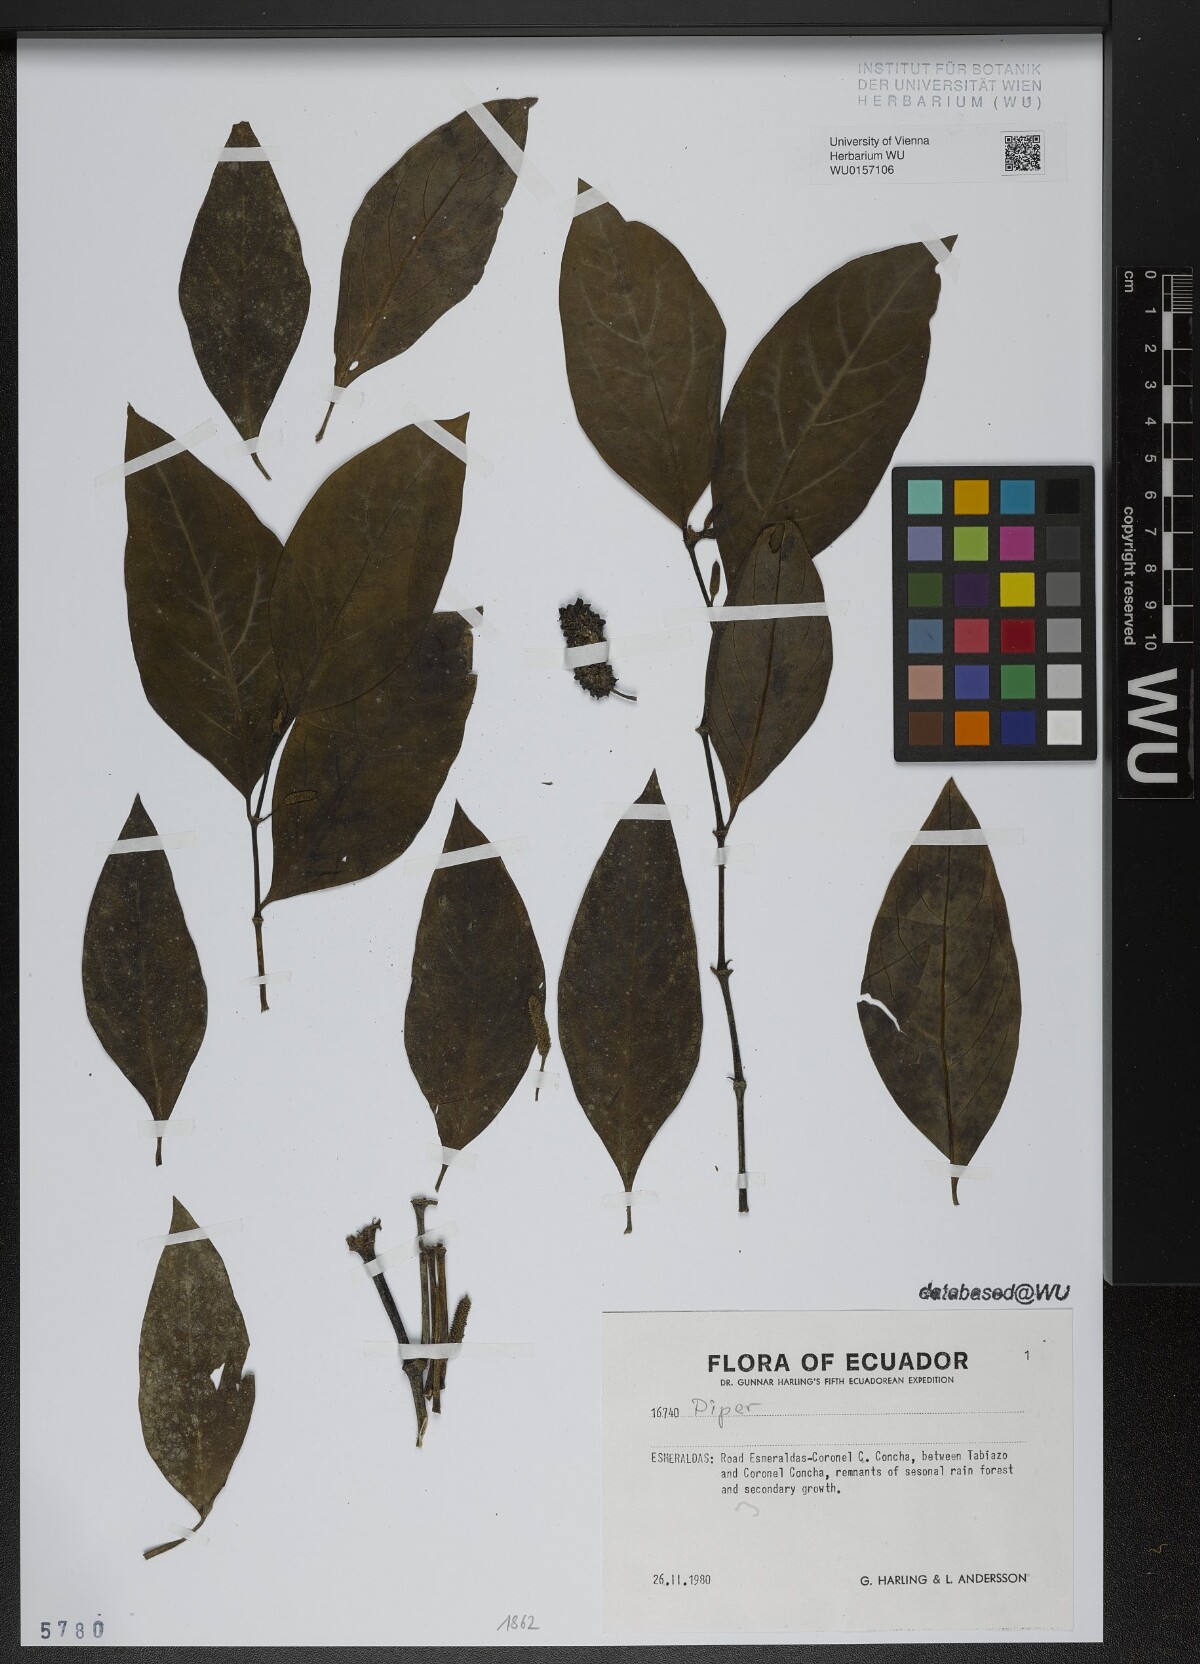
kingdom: Plantae
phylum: Tracheophyta
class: Magnoliopsida
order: Piperales
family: Piperaceae
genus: Piper
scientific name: Piper
